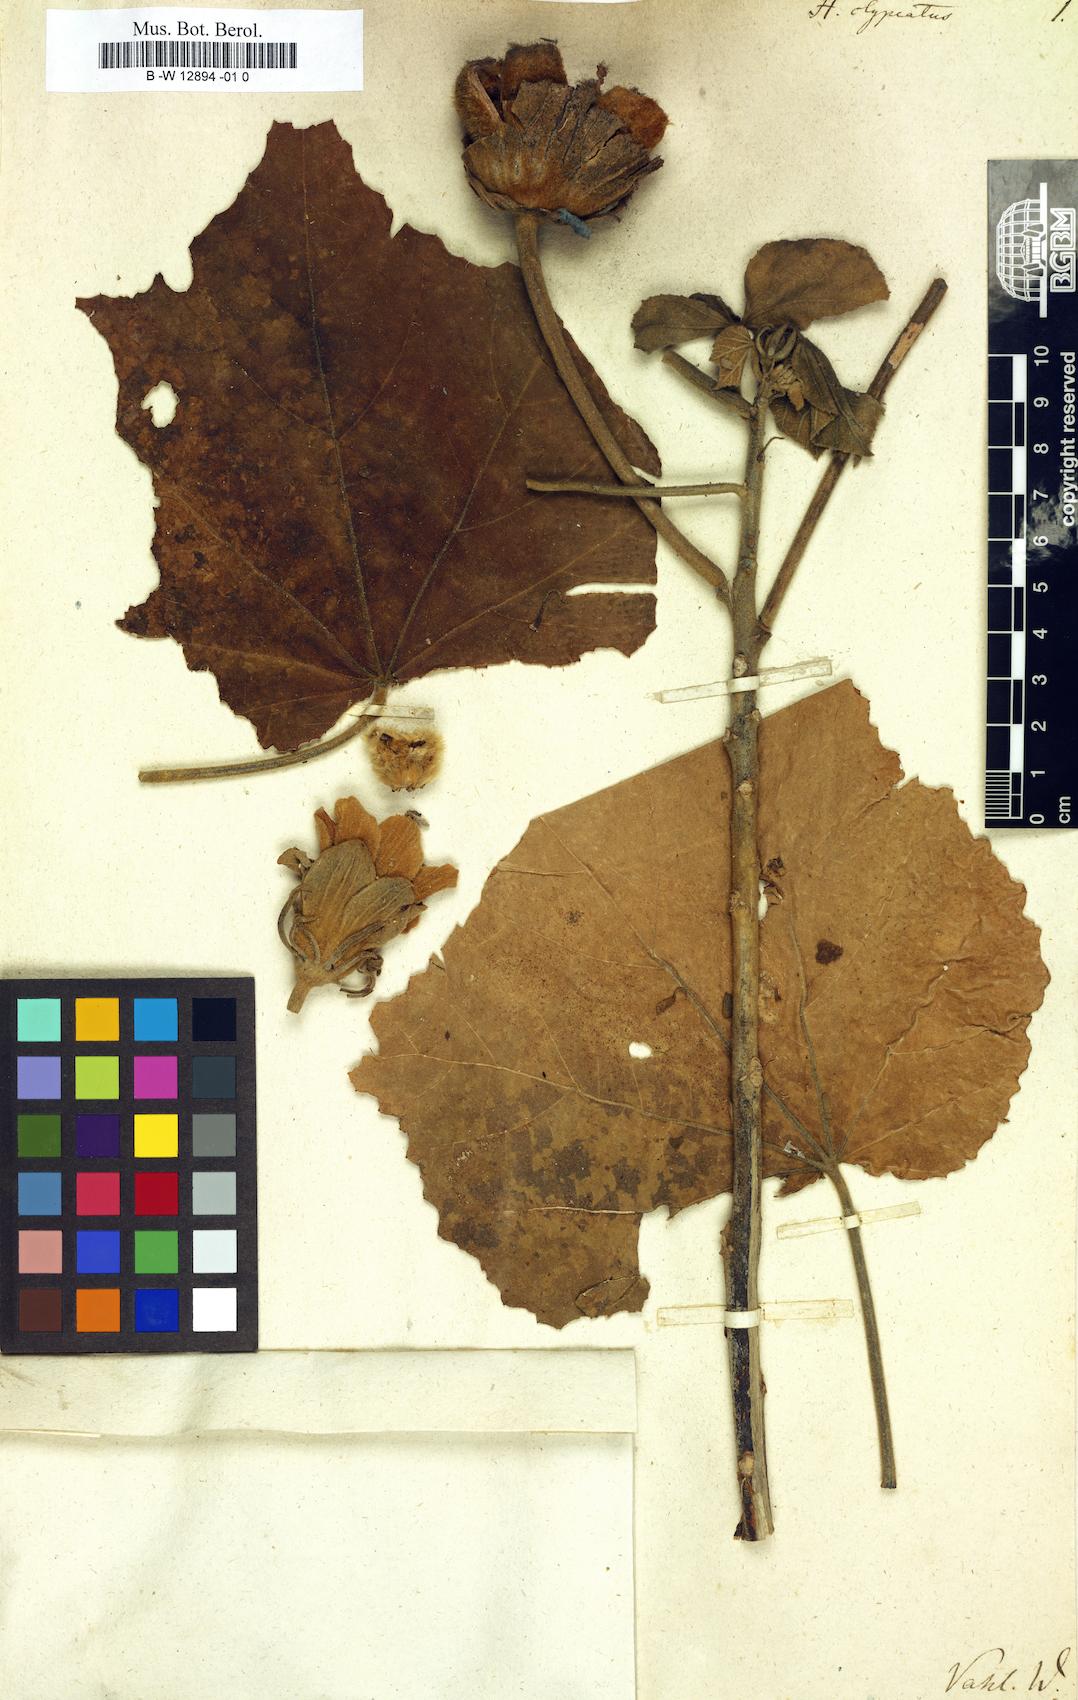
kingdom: Plantae
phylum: Tracheophyta
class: Magnoliopsida
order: Malvales
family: Malvaceae
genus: Hibiscus
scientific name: Hibiscus clypeatus
